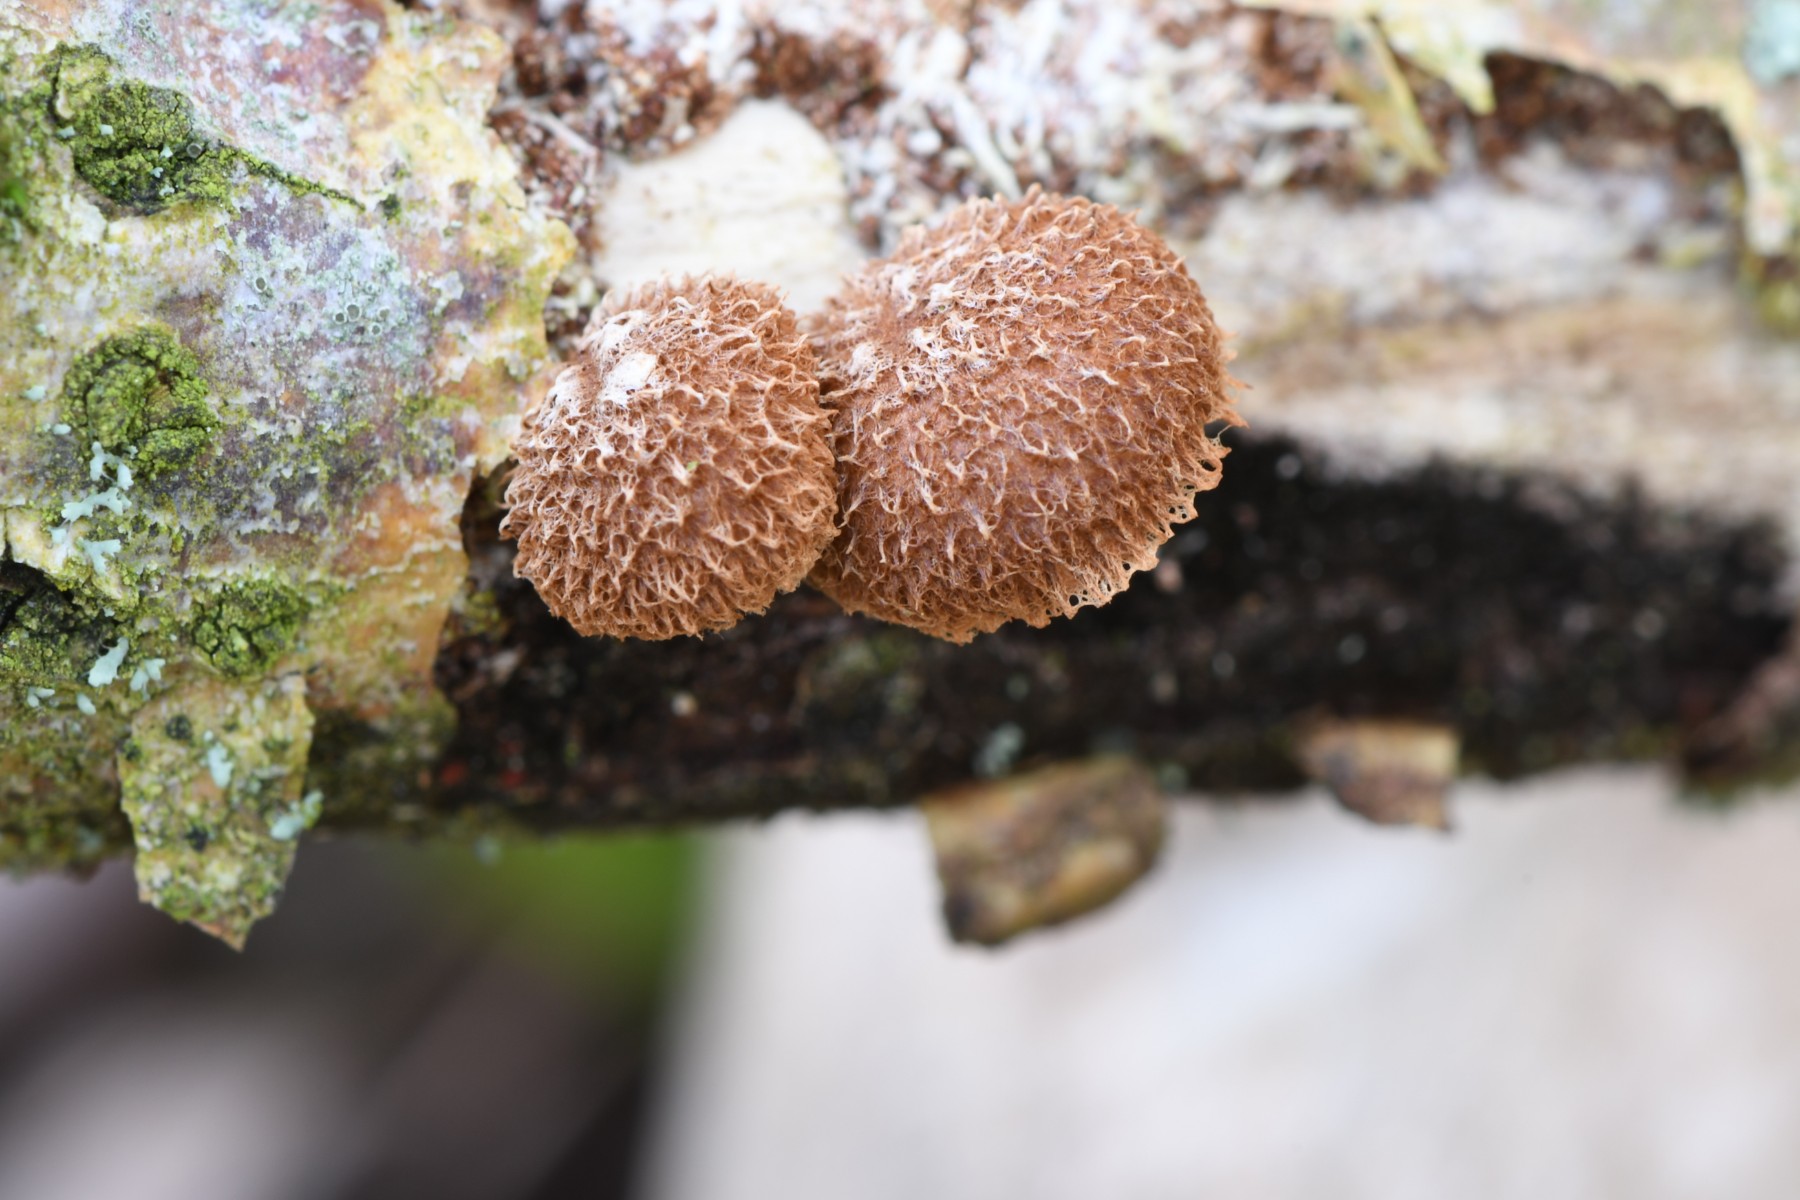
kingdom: Fungi
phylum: Basidiomycota
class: Agaricomycetes
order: Agaricales
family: Tubariaceae
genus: Phaeomarasmius
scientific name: Phaeomarasmius erinaceus
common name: spidsskælhat
